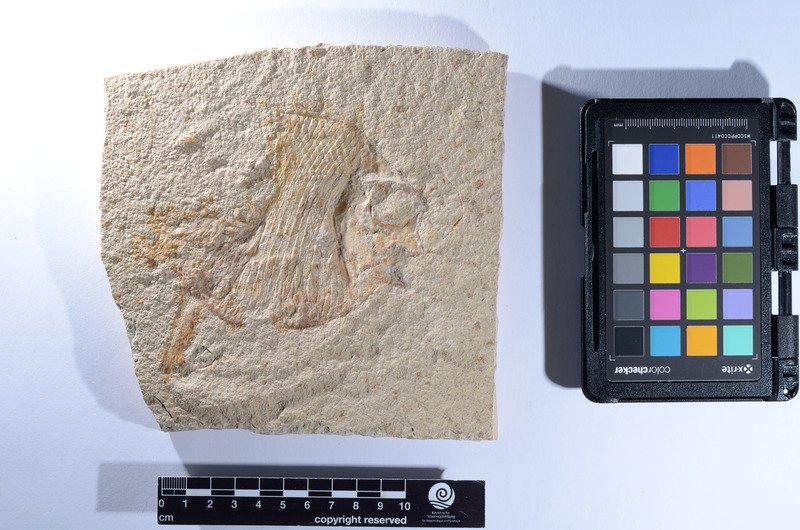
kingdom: Animalia
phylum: Chordata
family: Gyrodontidae
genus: Gyrodus
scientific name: Gyrodus minor
